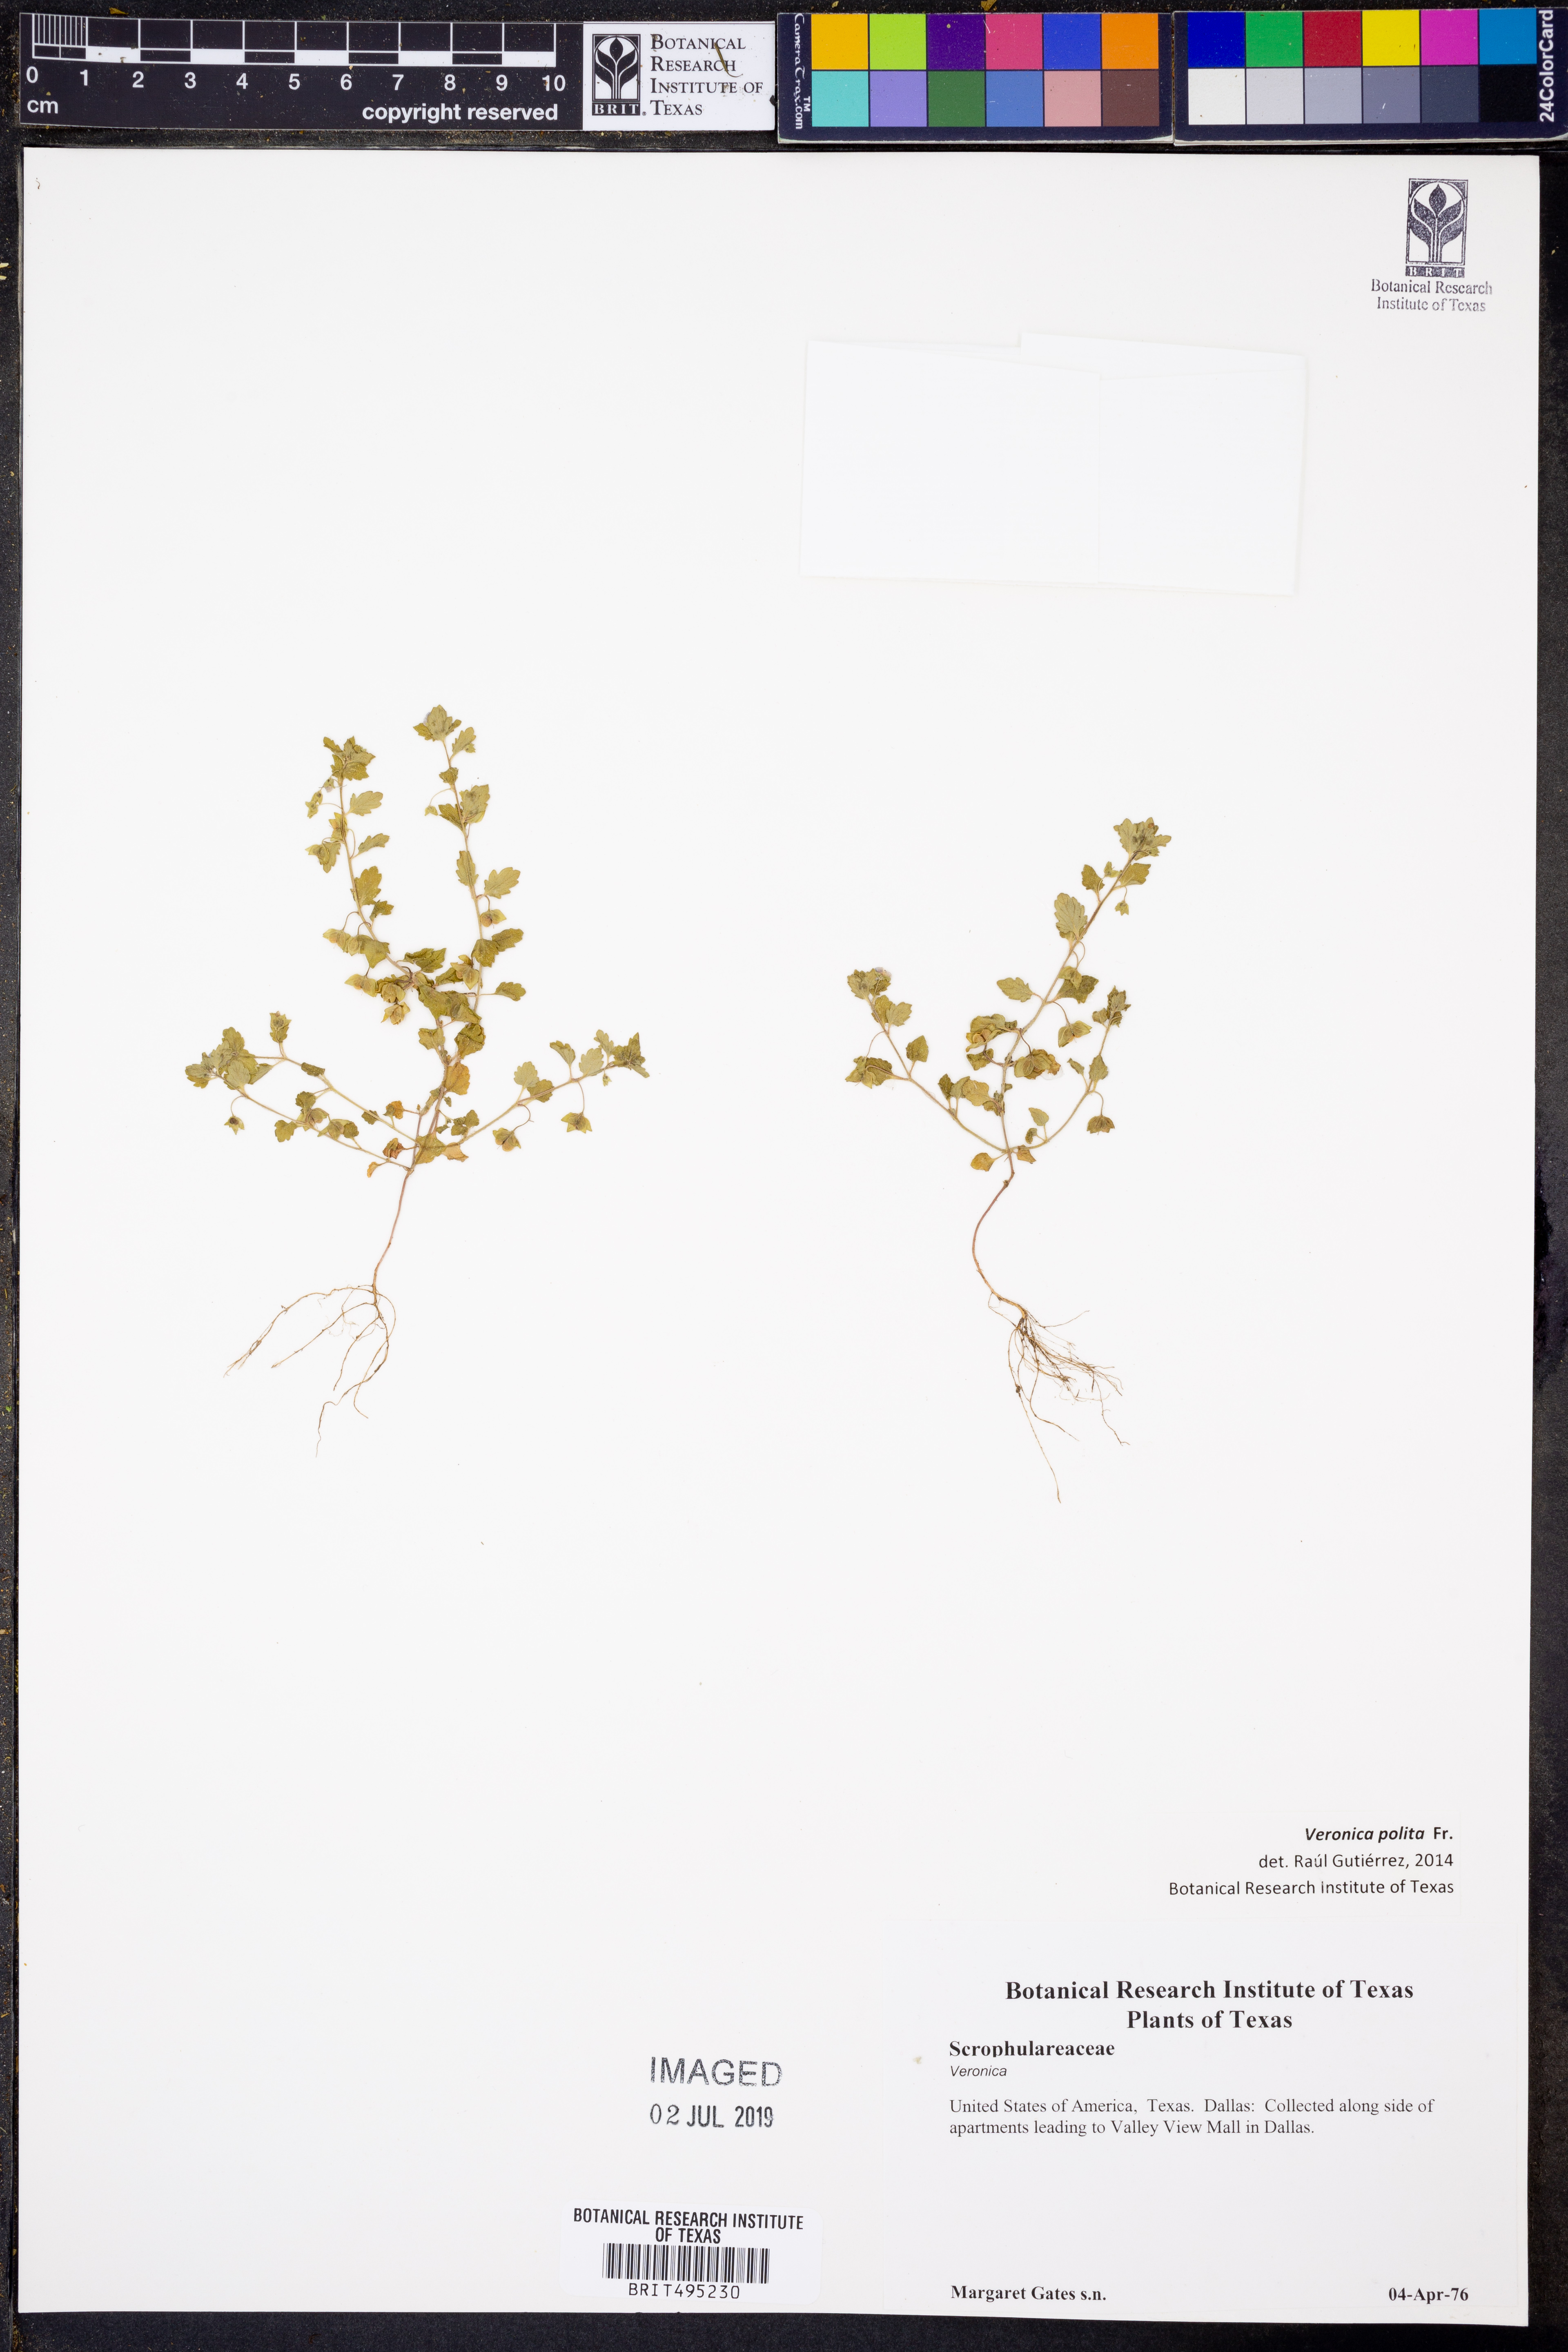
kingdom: Plantae
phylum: Tracheophyta
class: Magnoliopsida
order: Lamiales
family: Plantaginaceae
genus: Veronica
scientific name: Veronica polita
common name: Grey field-speedwell
